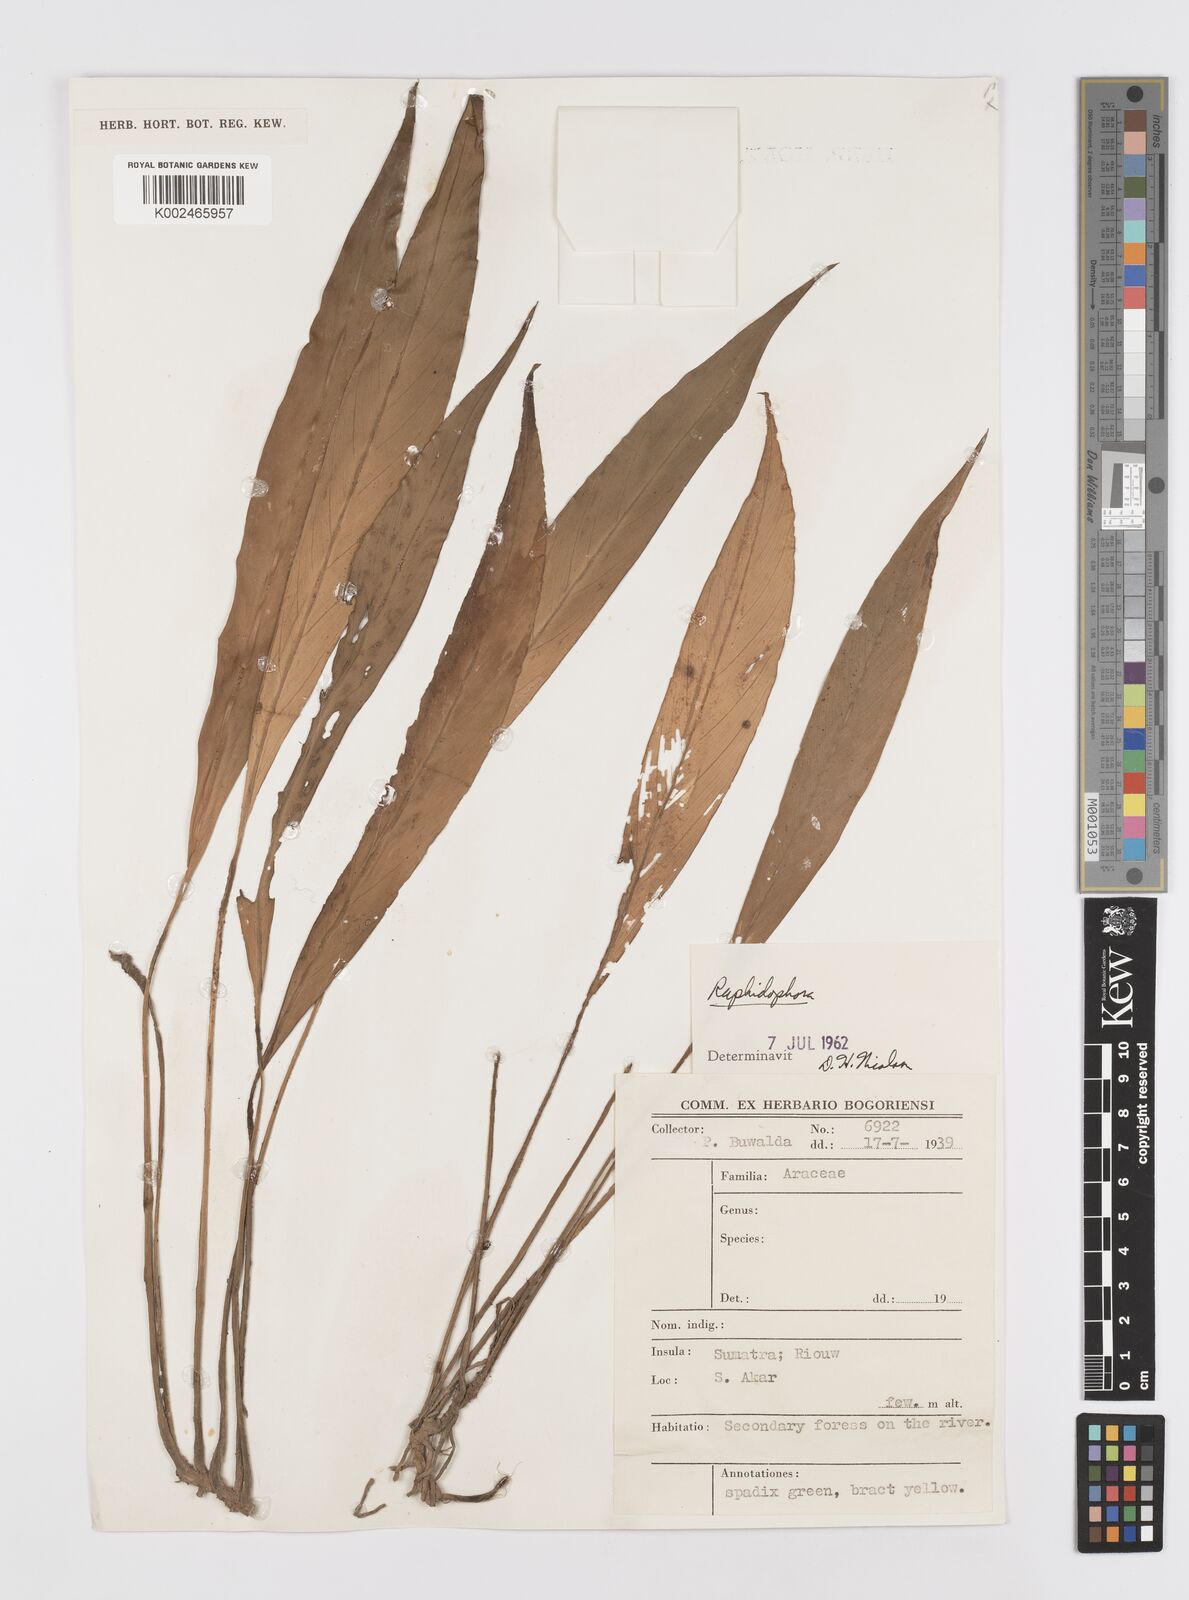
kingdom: Plantae
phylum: Tracheophyta
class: Liliopsida
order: Alismatales
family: Araceae
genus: Rhaphidophora
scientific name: Rhaphidophora araea
